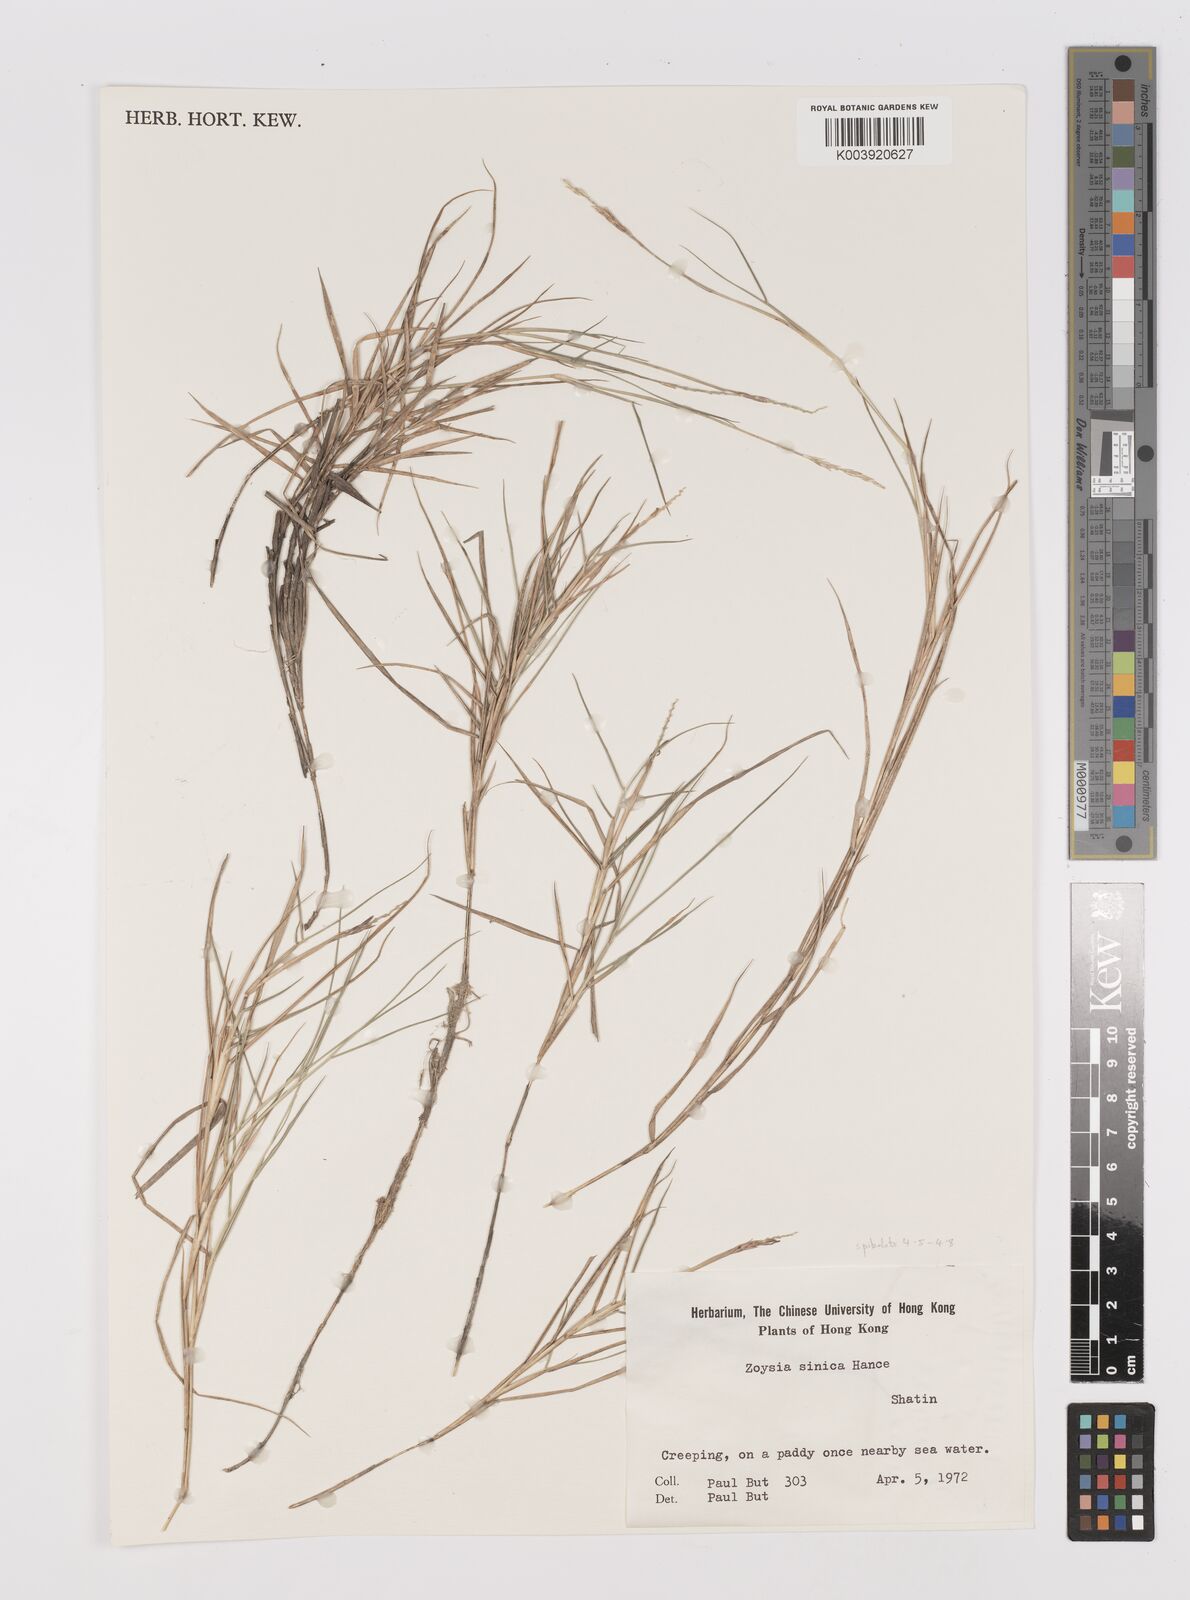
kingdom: Plantae
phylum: Tracheophyta
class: Liliopsida
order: Poales
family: Poaceae
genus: Zoysia
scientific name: Zoysia sinica
